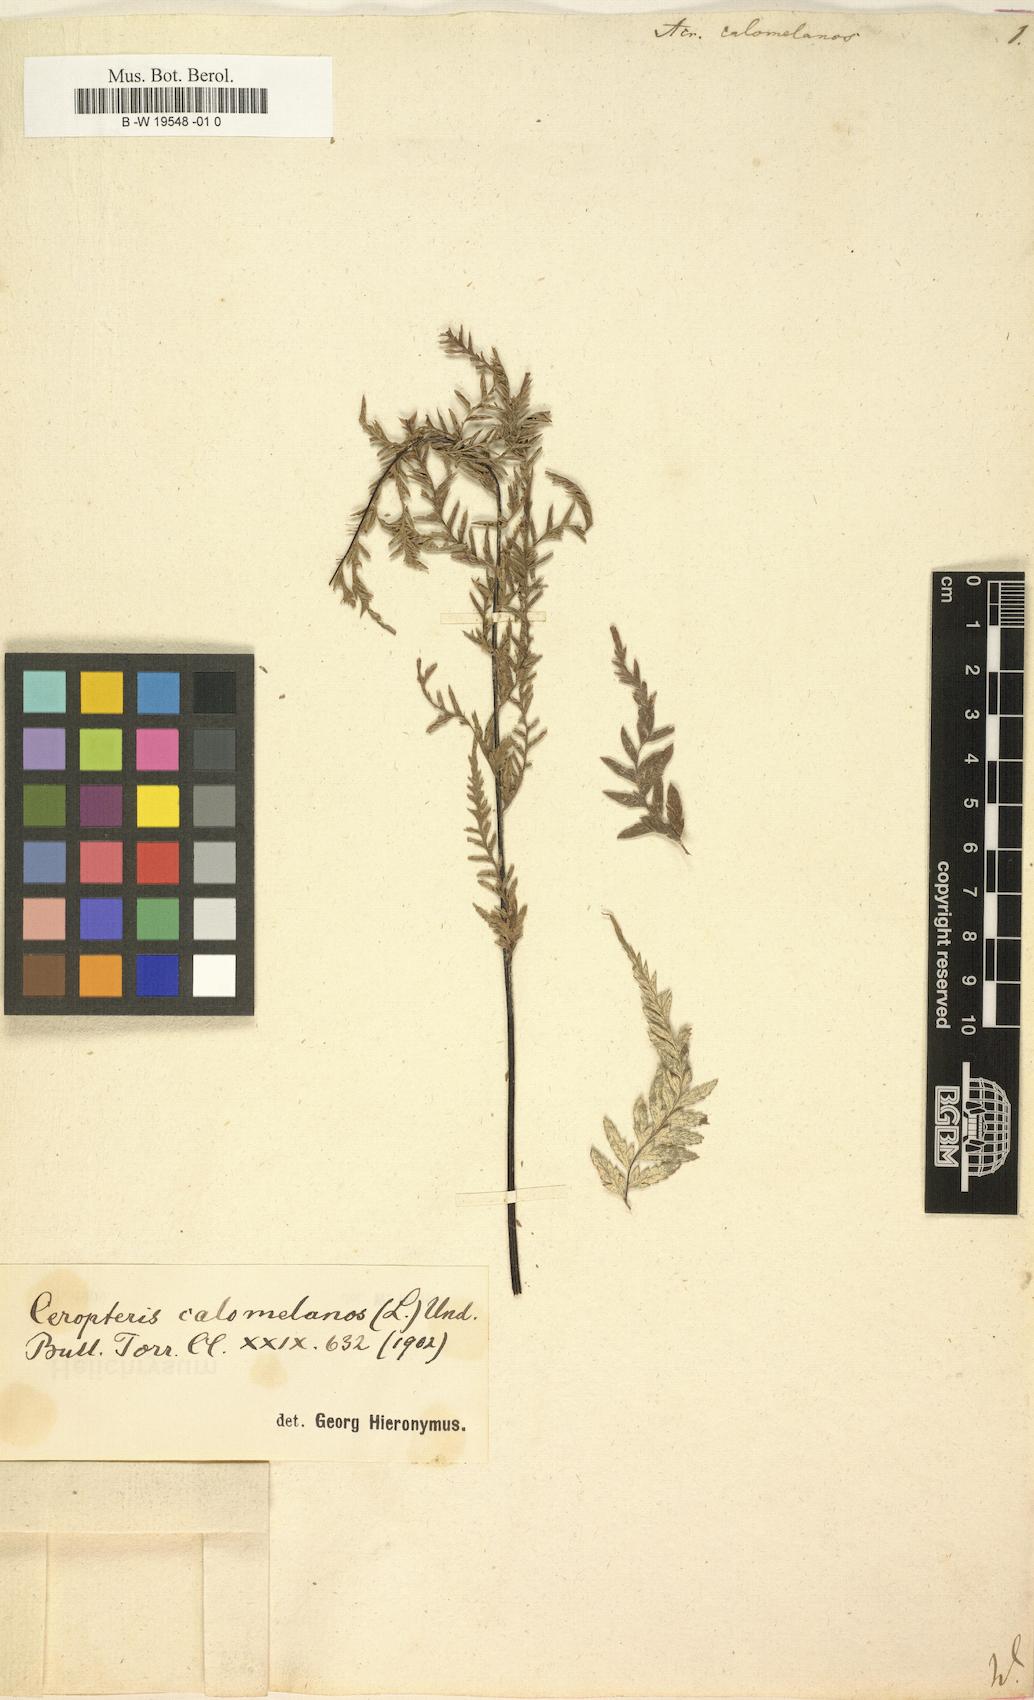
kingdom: Plantae
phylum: Tracheophyta
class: Polypodiopsida
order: Polypodiales
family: Pteridaceae
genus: Pityrogramma
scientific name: Pityrogramma calomelanos
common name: Dixie silverback fern
